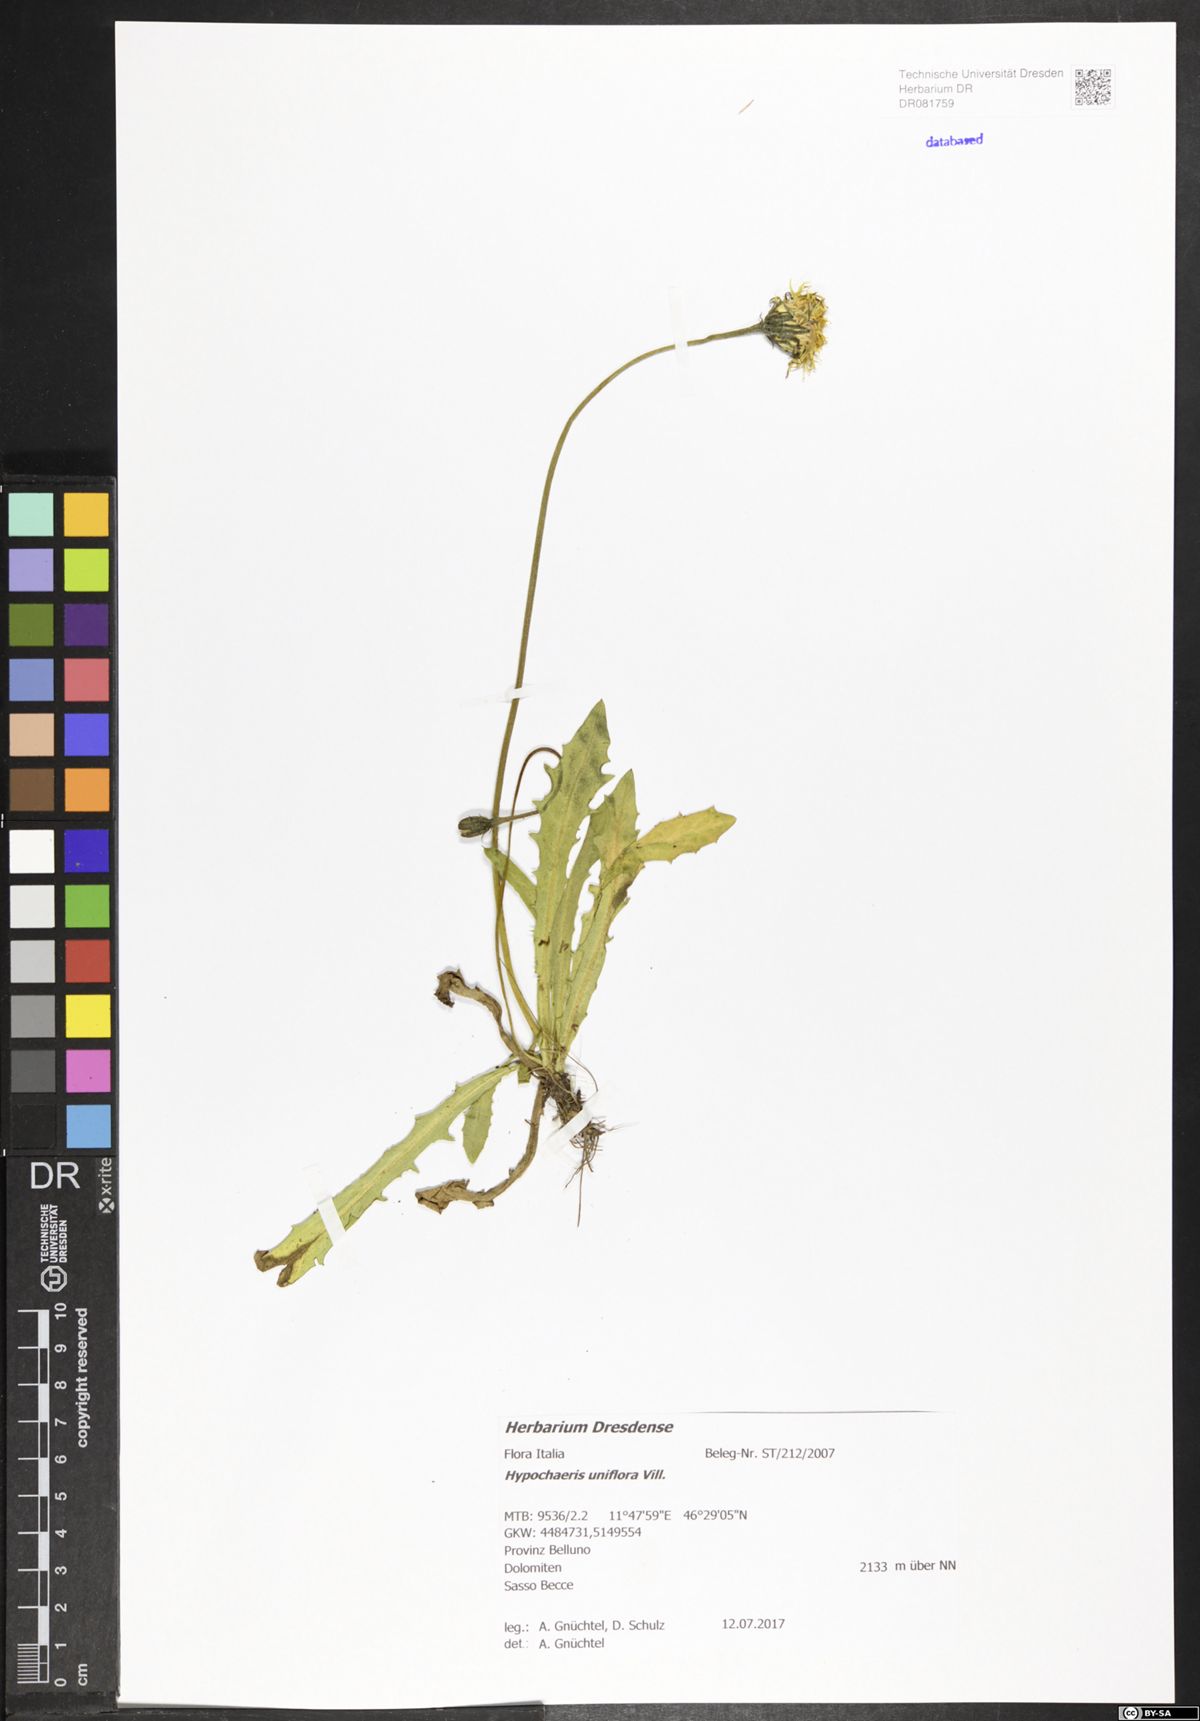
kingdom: Plantae
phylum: Tracheophyta
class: Magnoliopsida
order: Asterales
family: Asteraceae
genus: Trommsdorffia
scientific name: Trommsdorffia uniflora
